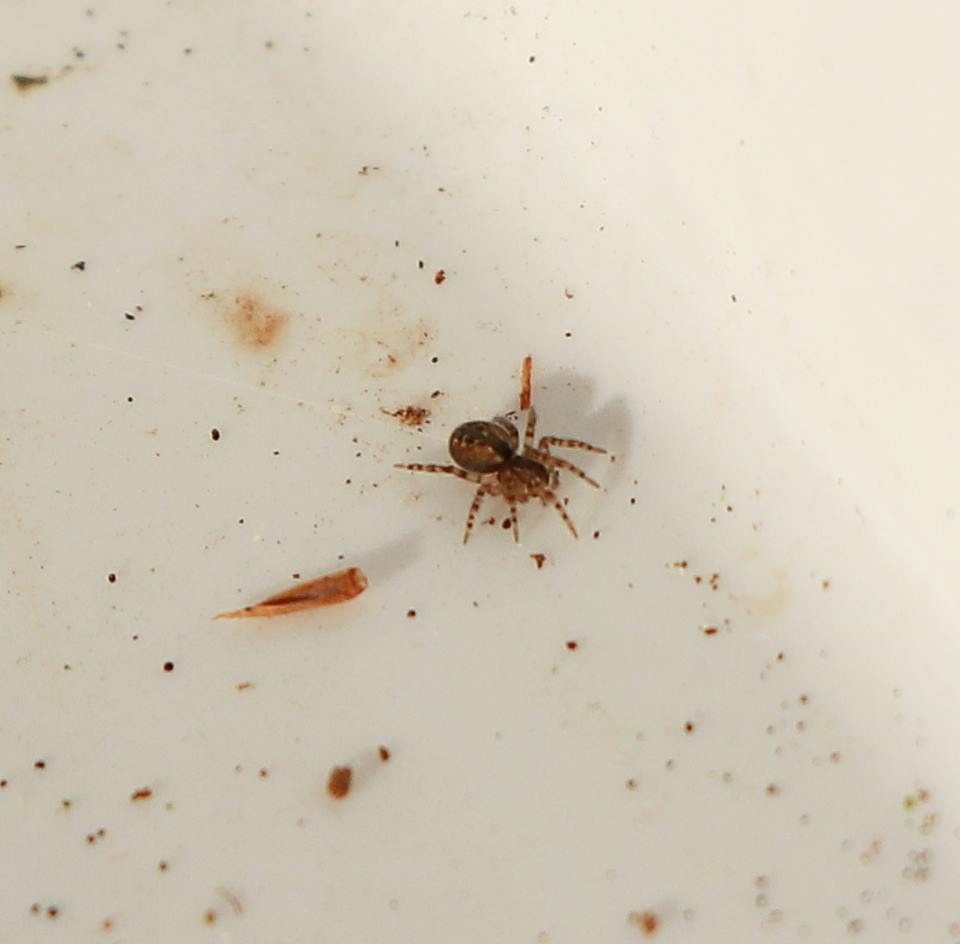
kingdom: Animalia
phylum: Arthropoda
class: Arachnida
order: Araneae
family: Dictynidae
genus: Lathys
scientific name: Lathys humilis
